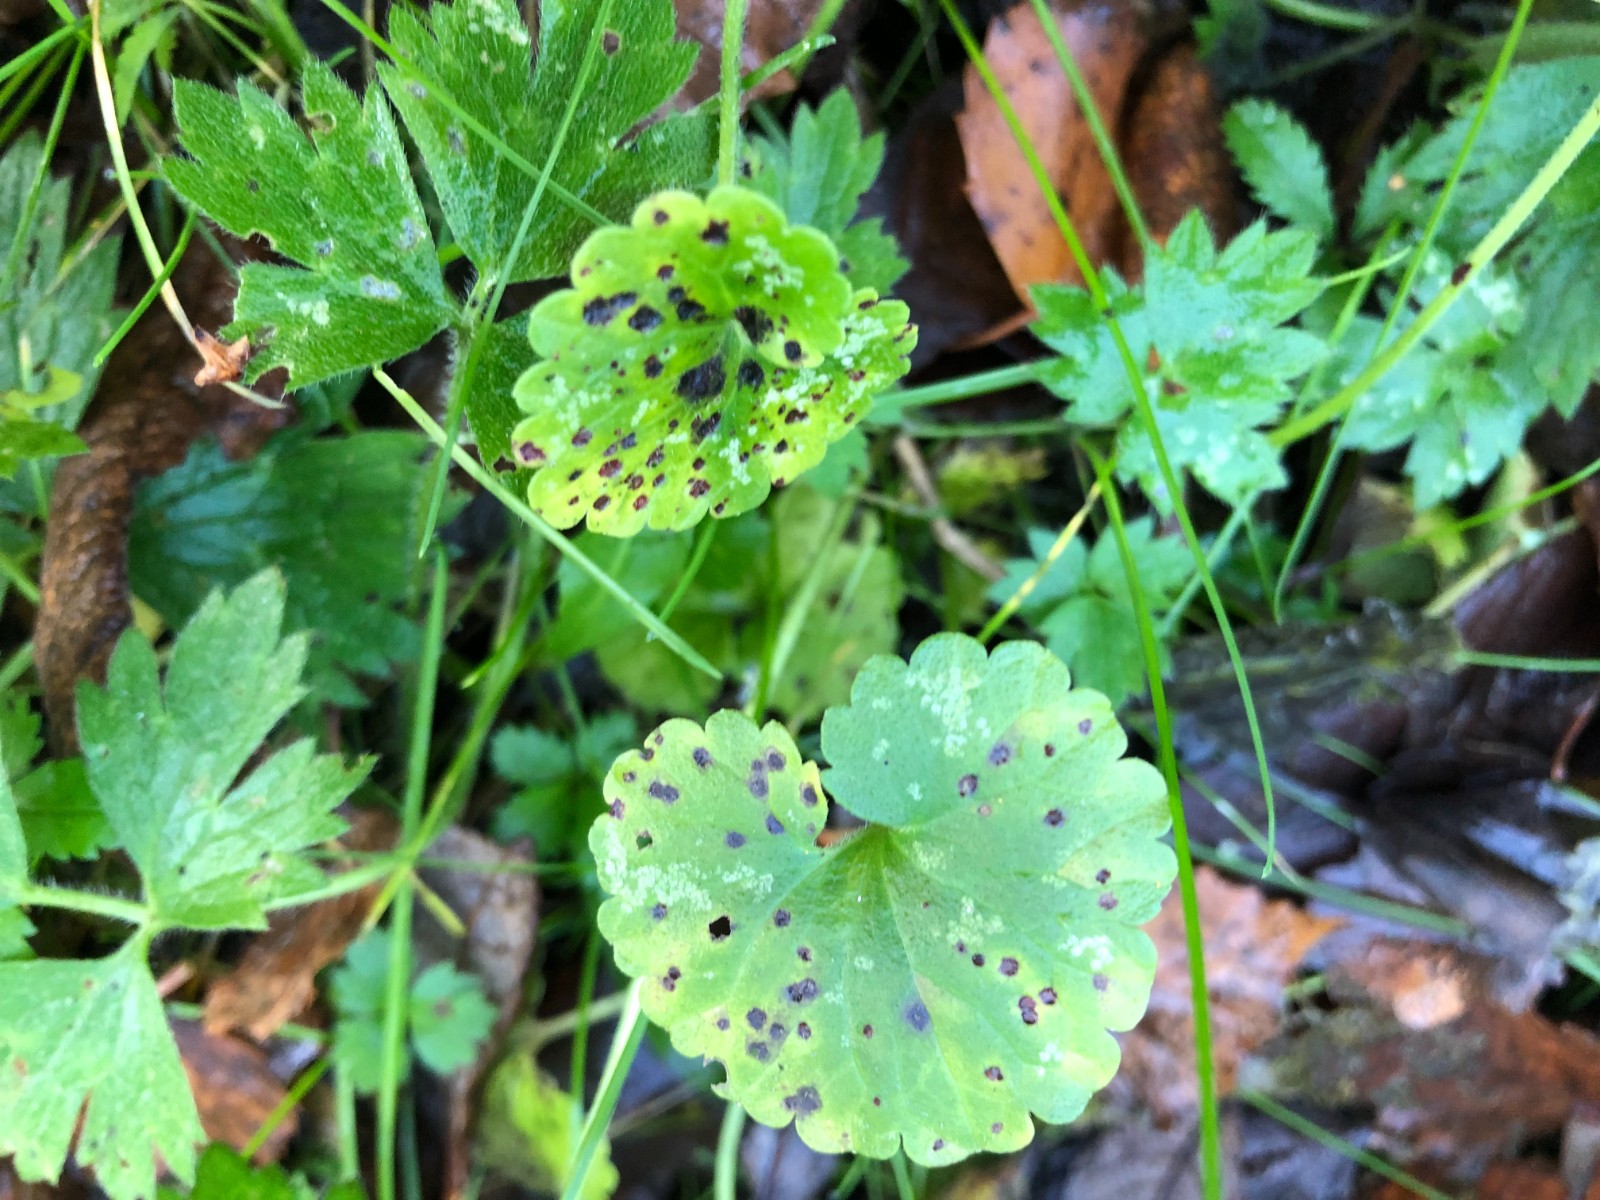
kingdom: Fungi
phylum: Basidiomycota
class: Pucciniomycetes
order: Pucciniales
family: Pucciniaceae
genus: Puccinia
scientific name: Puccinia glechomatis
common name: Ground ivy rust
